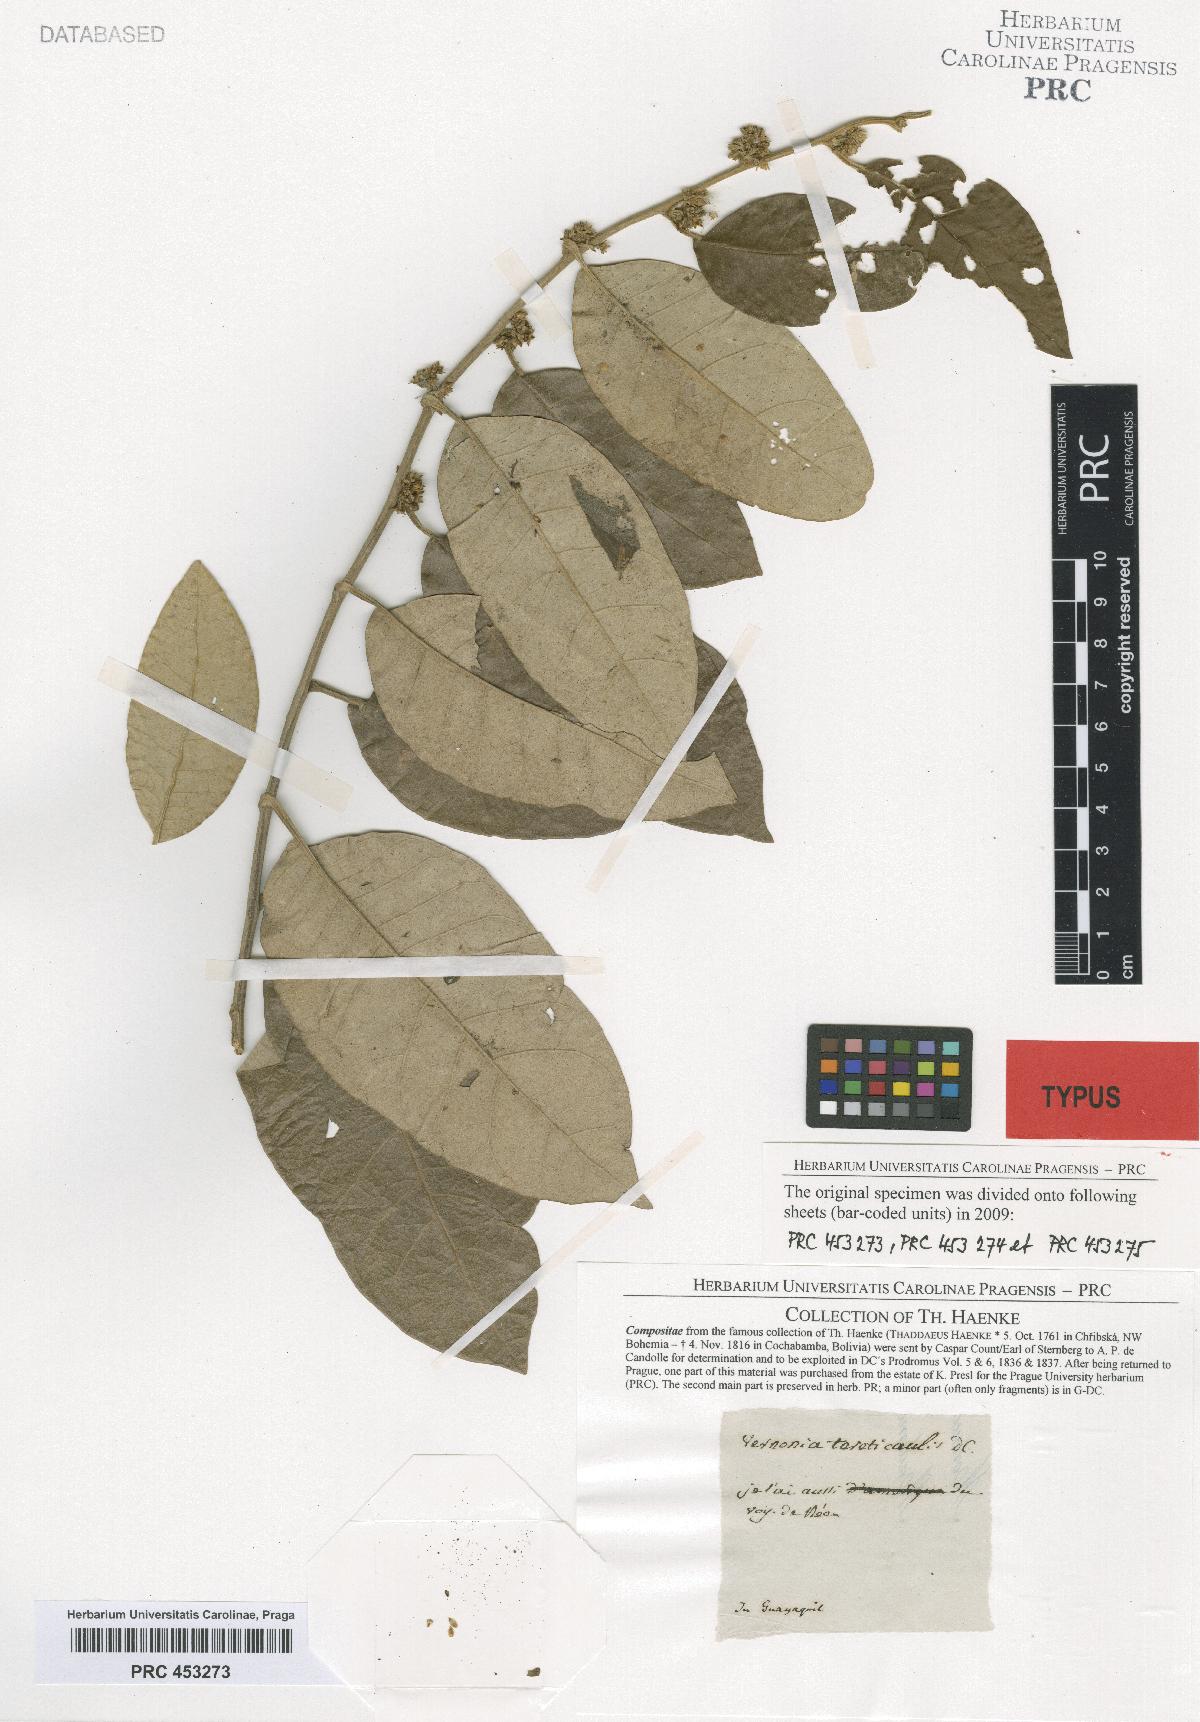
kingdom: Plantae
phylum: Tracheophyta
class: Magnoliopsida
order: Asterales
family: Asteraceae
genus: Piptocarpha
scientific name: Piptocarpha poeppigiana
